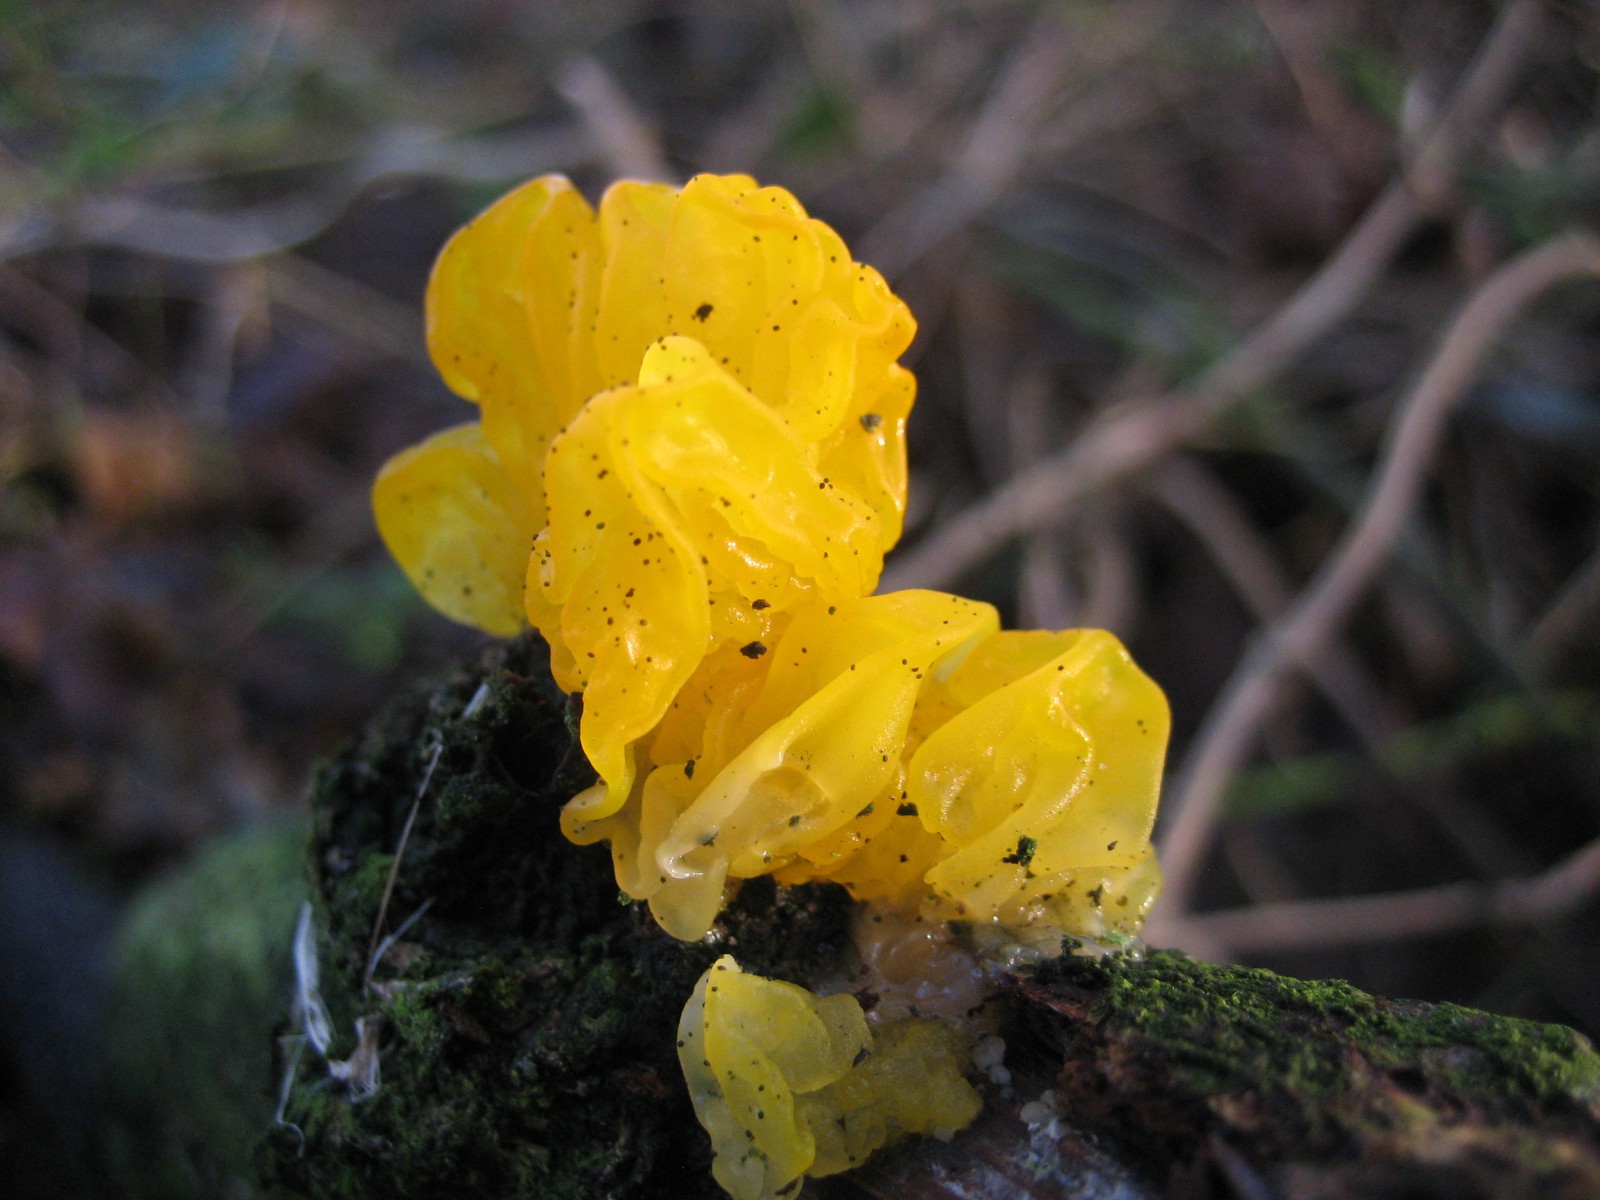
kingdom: Fungi
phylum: Basidiomycota
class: Tremellomycetes
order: Tremellales
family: Tremellaceae
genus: Tremella
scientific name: Tremella mesenterica
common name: gul bævresvamp
